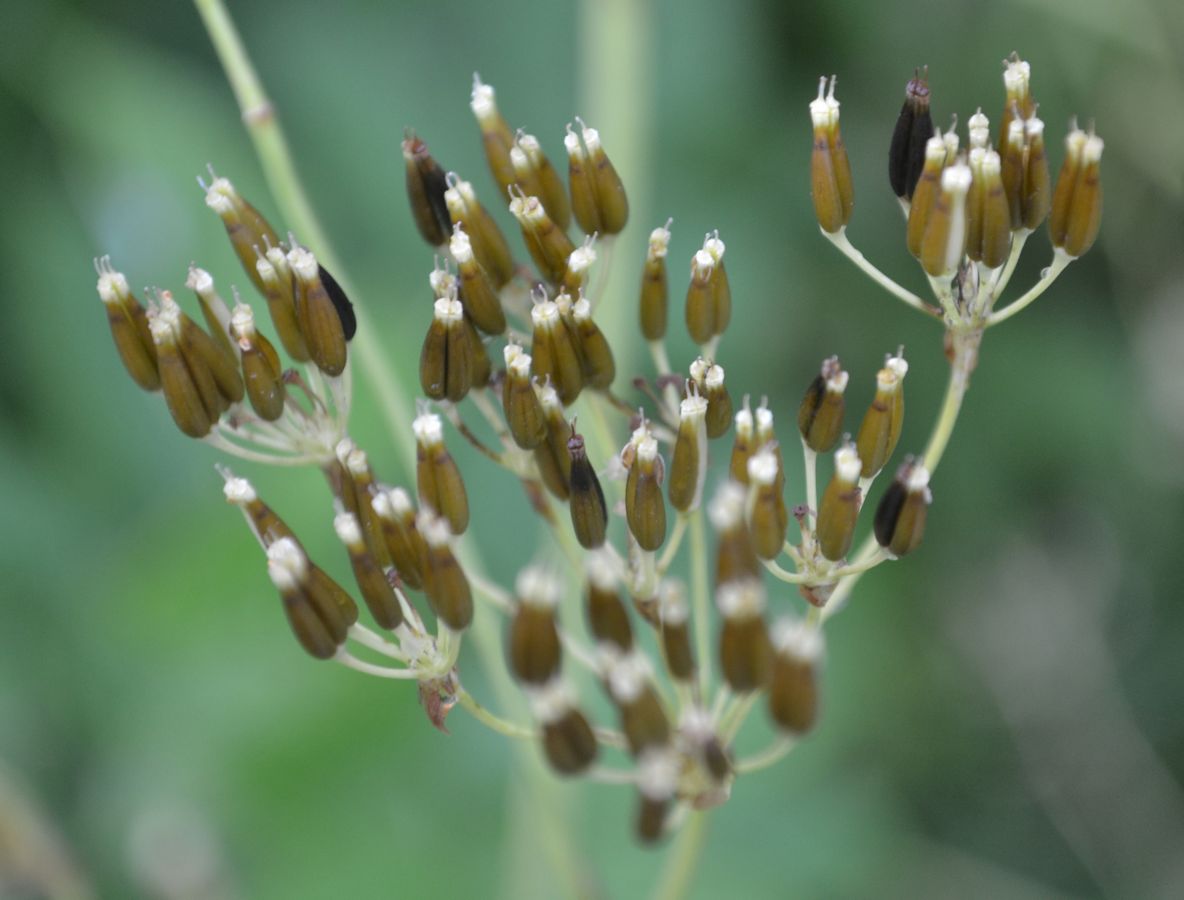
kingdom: Plantae
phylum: Tracheophyta
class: Magnoliopsida
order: Apiales
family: Apiaceae
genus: Anthriscus
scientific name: Anthriscus sylvestris
